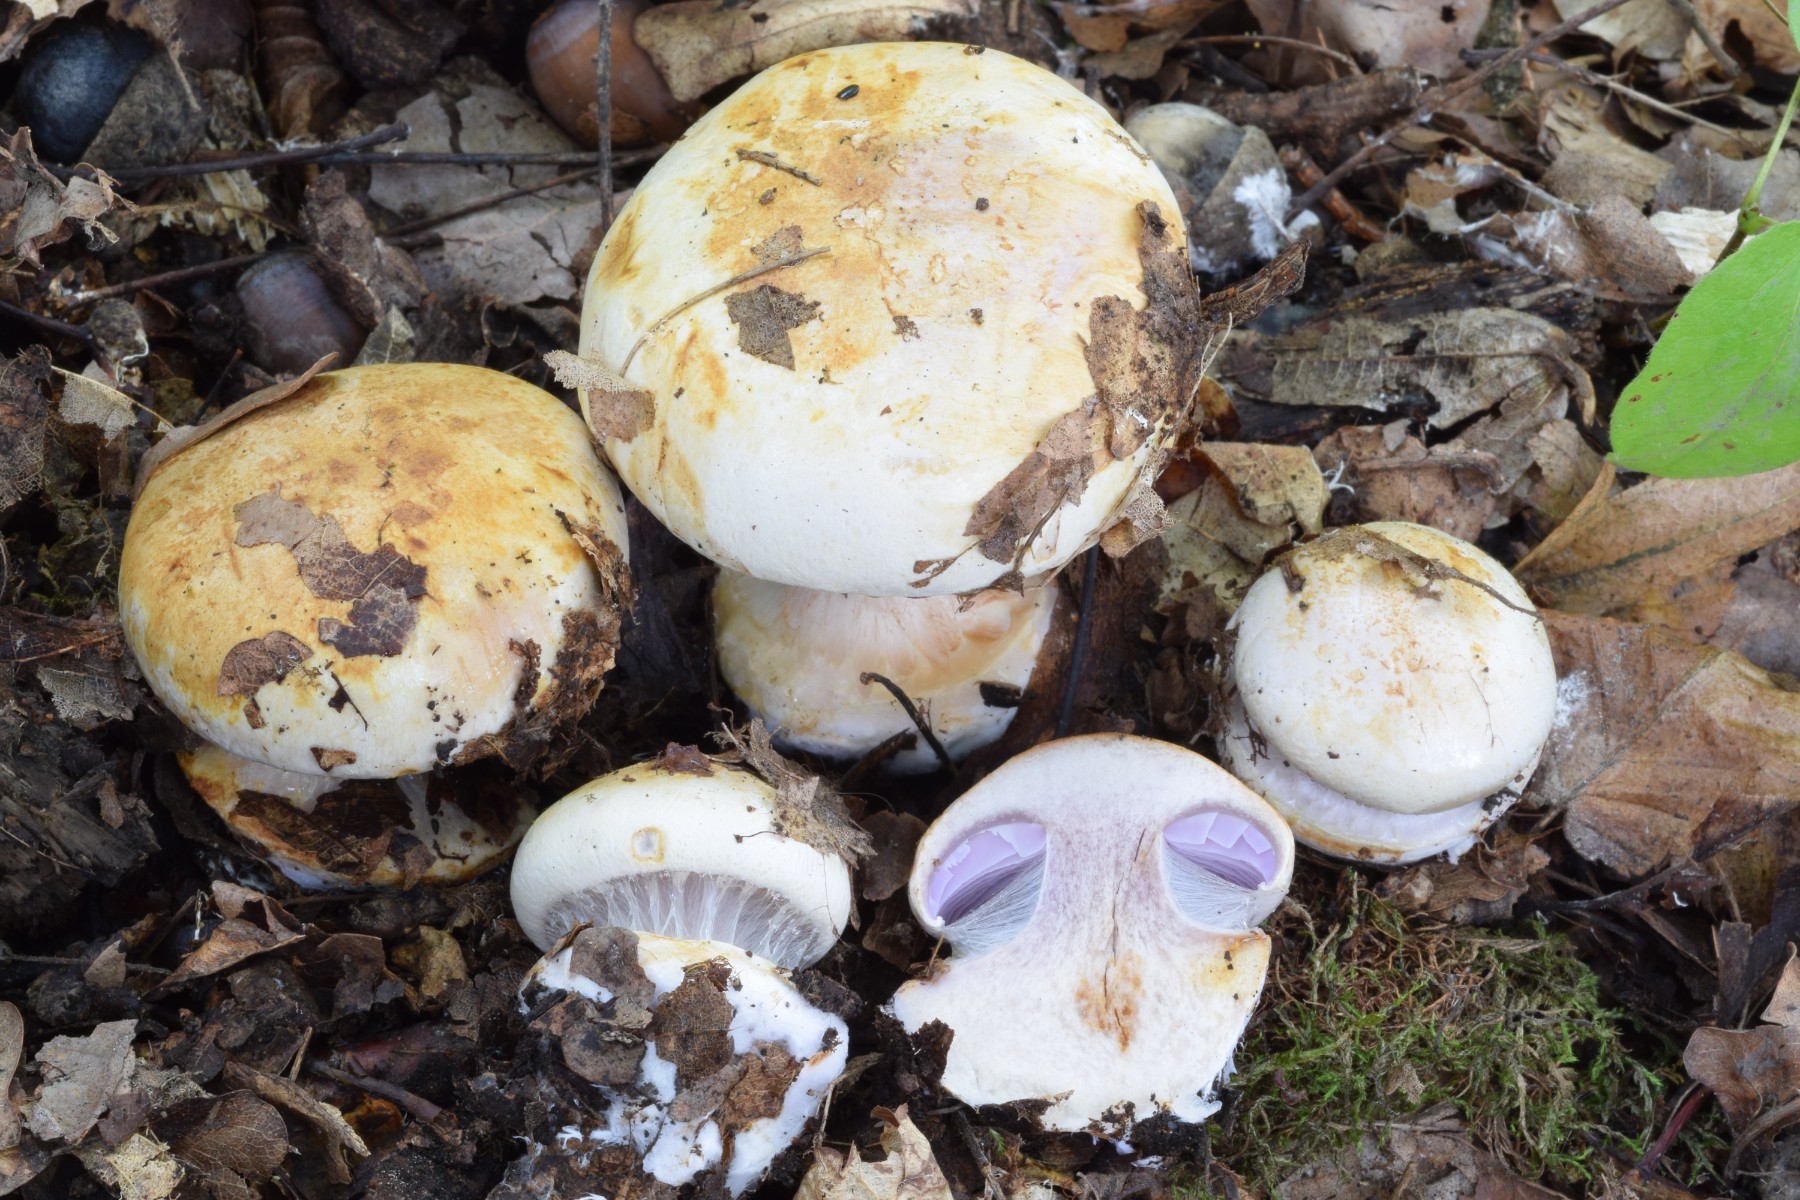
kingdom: Fungi
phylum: Basidiomycota
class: Agaricomycetes
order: Agaricales
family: Cortinariaceae
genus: Calonarius
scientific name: Calonarius catharinae
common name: Katrines slørhat
